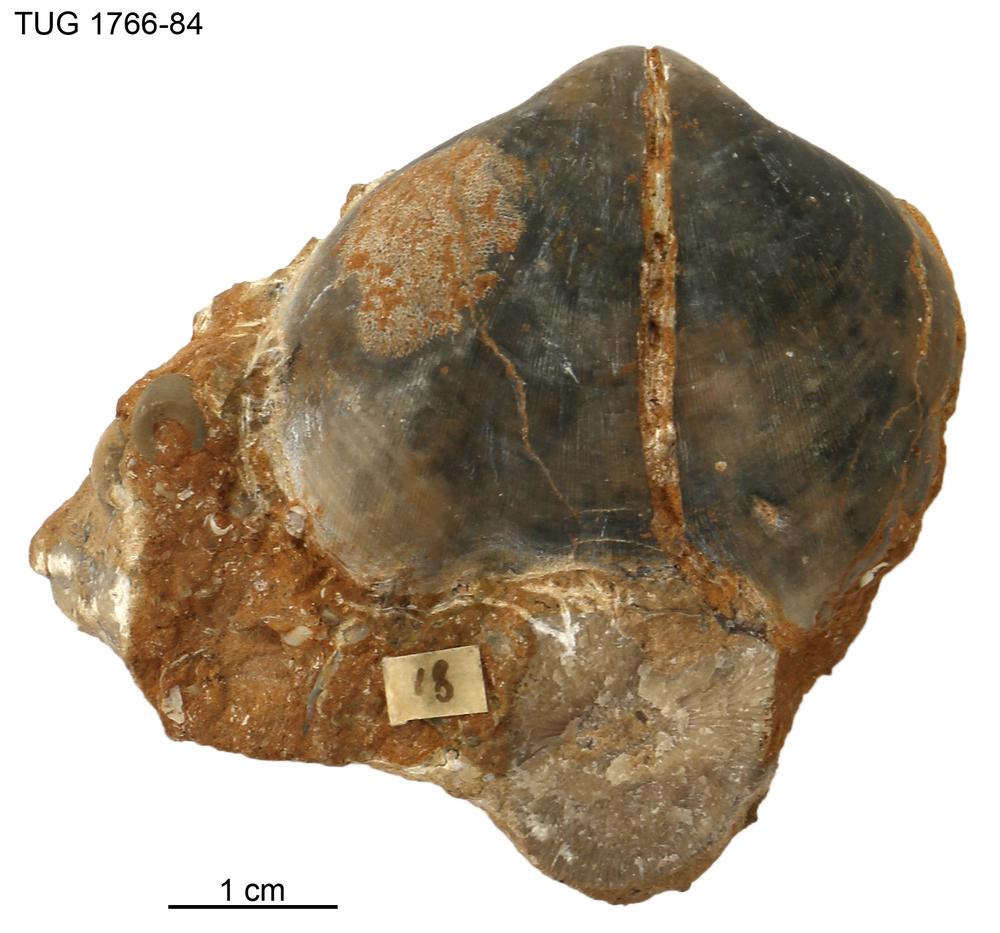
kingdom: Animalia
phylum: Brachiopoda
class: Rhynchonellata
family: Porambonitidae
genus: Porambonites
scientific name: Porambonites
